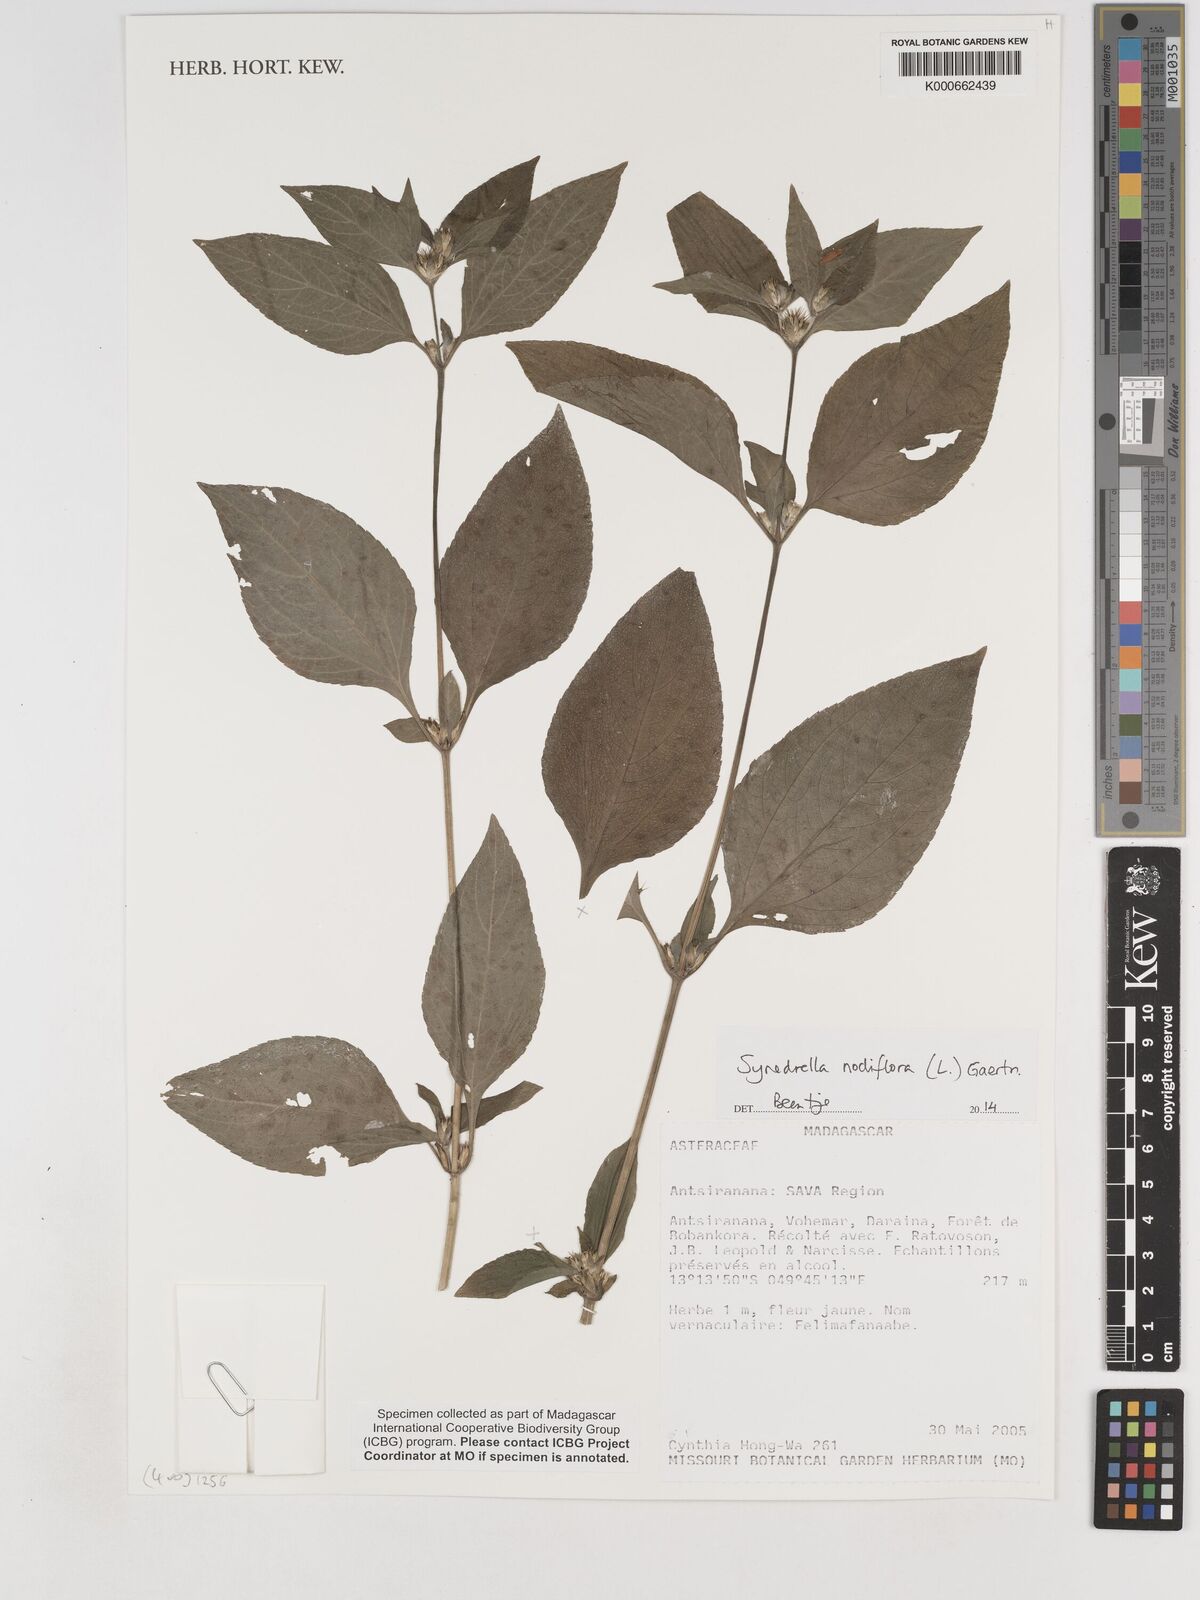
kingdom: Plantae
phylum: Tracheophyta
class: Magnoliopsida
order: Asterales
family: Asteraceae
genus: Synedrella
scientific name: Synedrella nodiflora
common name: Nodeweed
